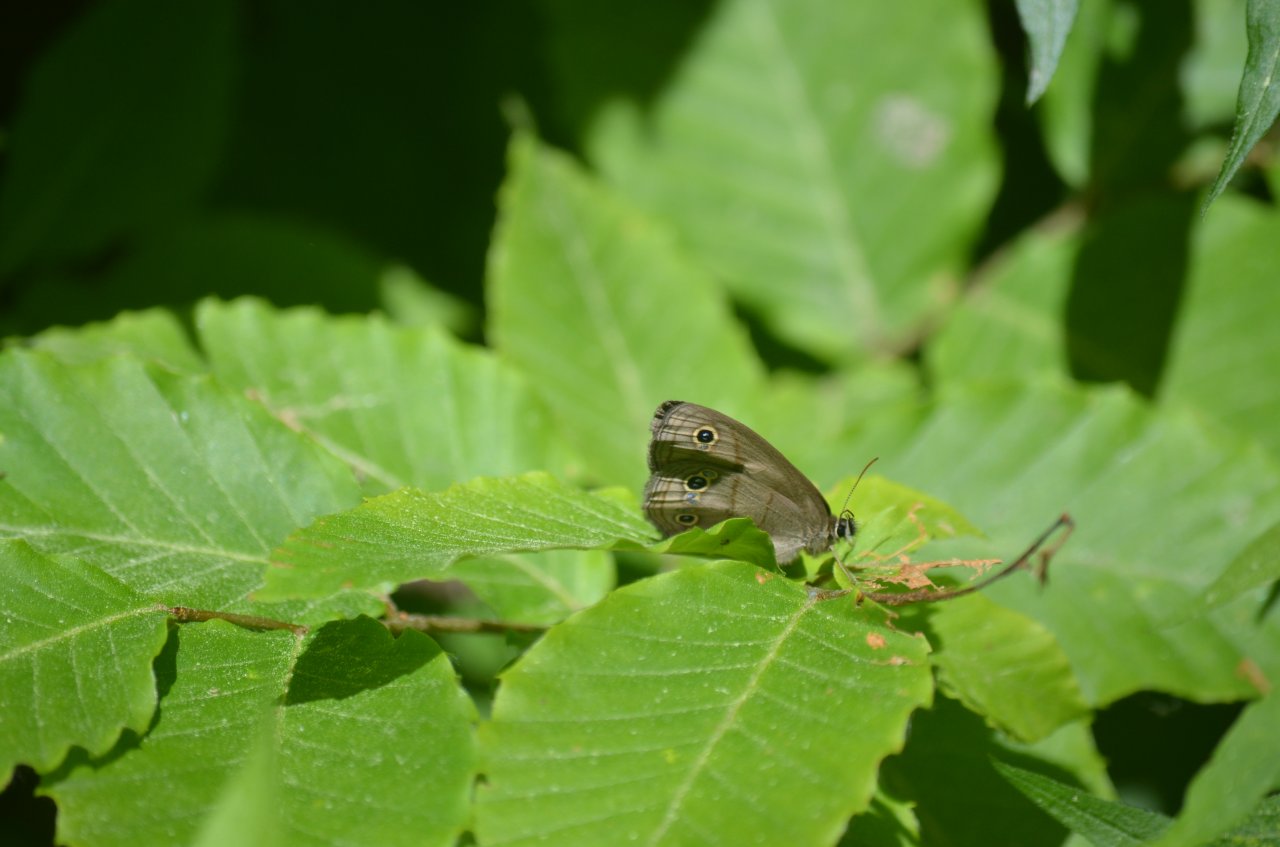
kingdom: Animalia
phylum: Arthropoda
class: Insecta
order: Lepidoptera
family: Nymphalidae
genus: Euptychia
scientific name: Euptychia cymela
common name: Little Wood Satyr
